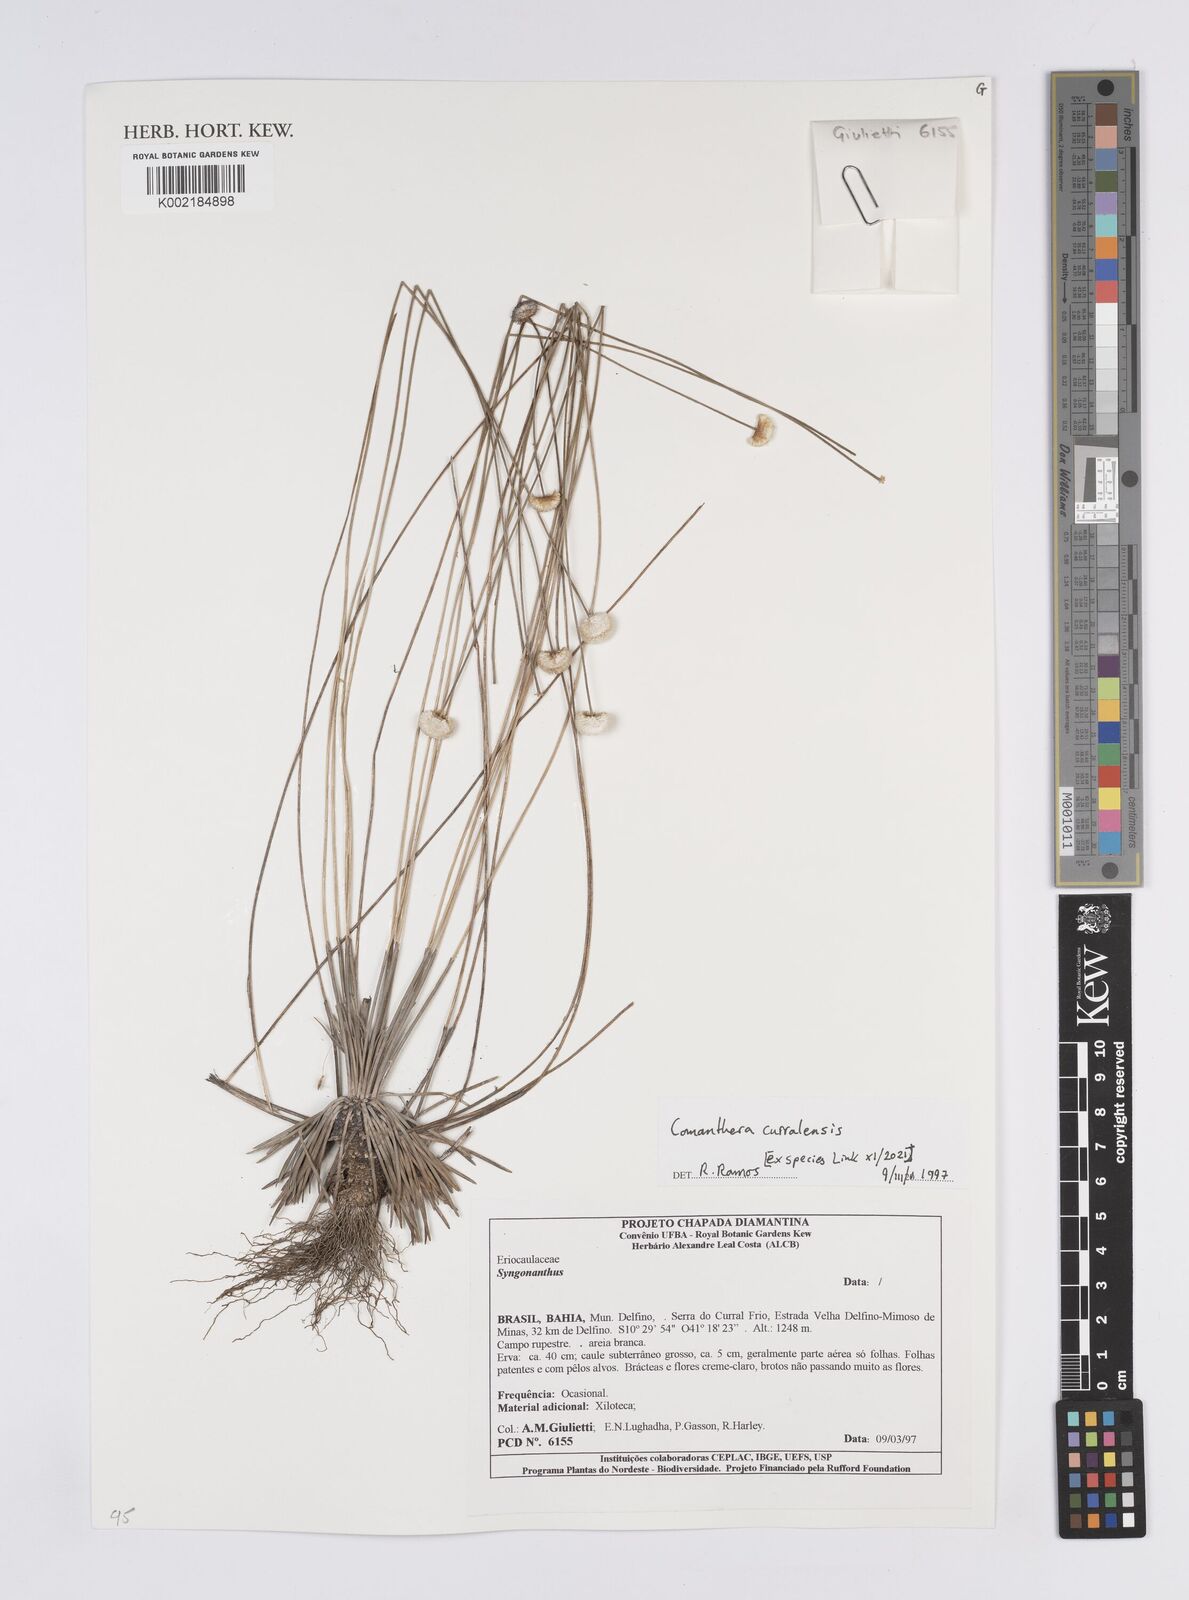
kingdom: Plantae
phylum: Tracheophyta
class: Liliopsida
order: Poales
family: Eriocaulaceae
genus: Comanthera
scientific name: Comanthera curralensis
